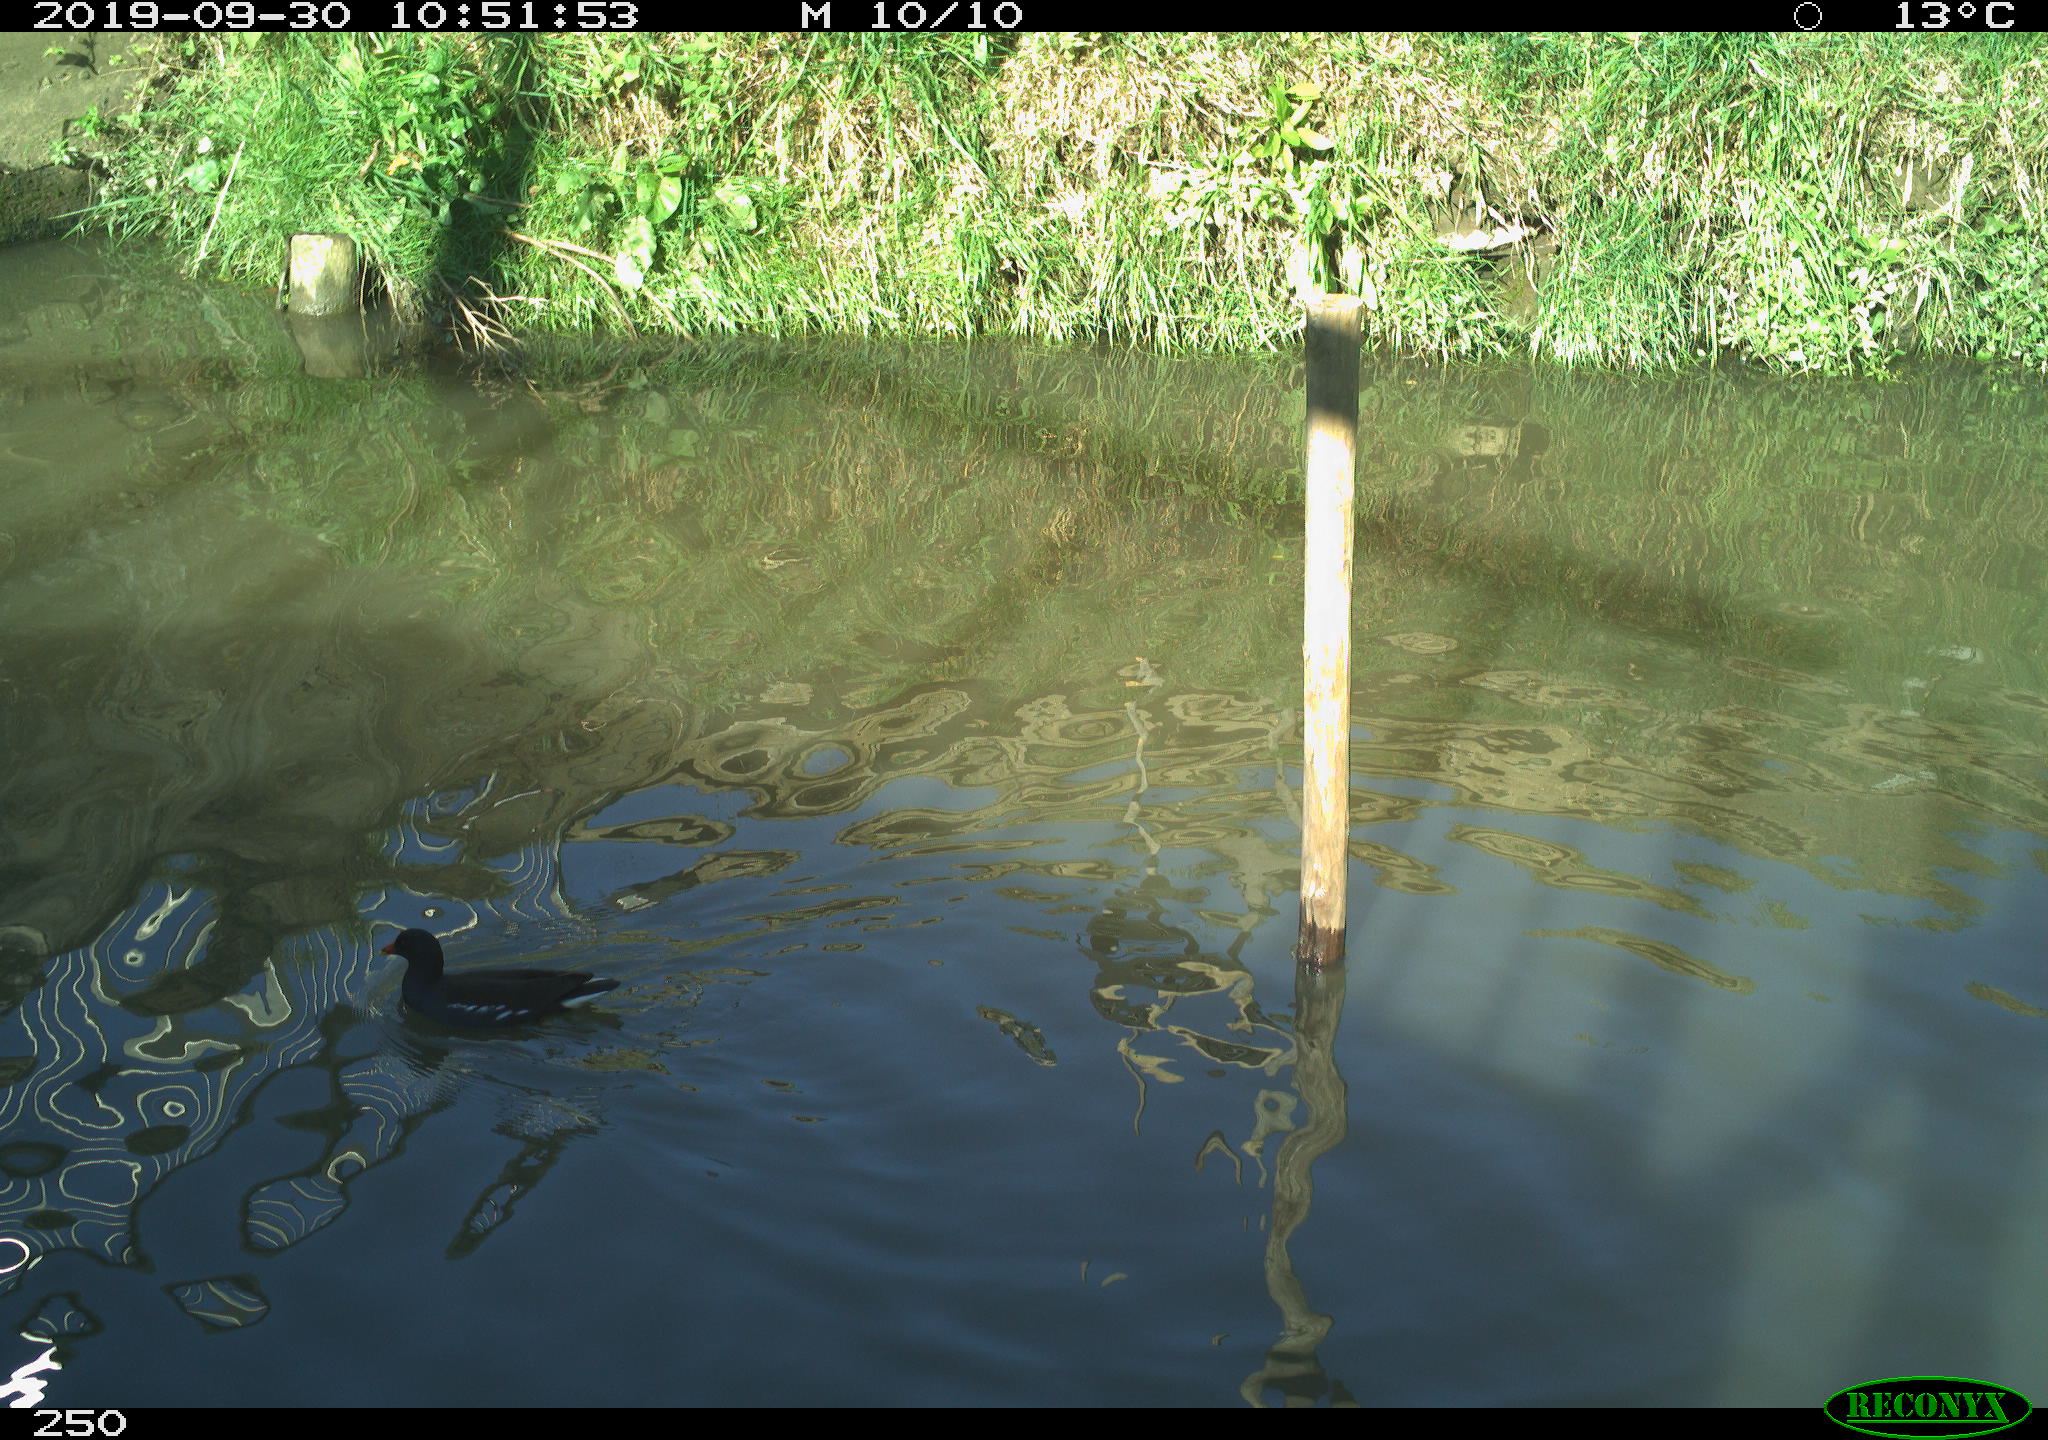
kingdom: Animalia
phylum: Chordata
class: Aves
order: Gruiformes
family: Rallidae
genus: Gallinula
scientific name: Gallinula chloropus
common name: Common moorhen
